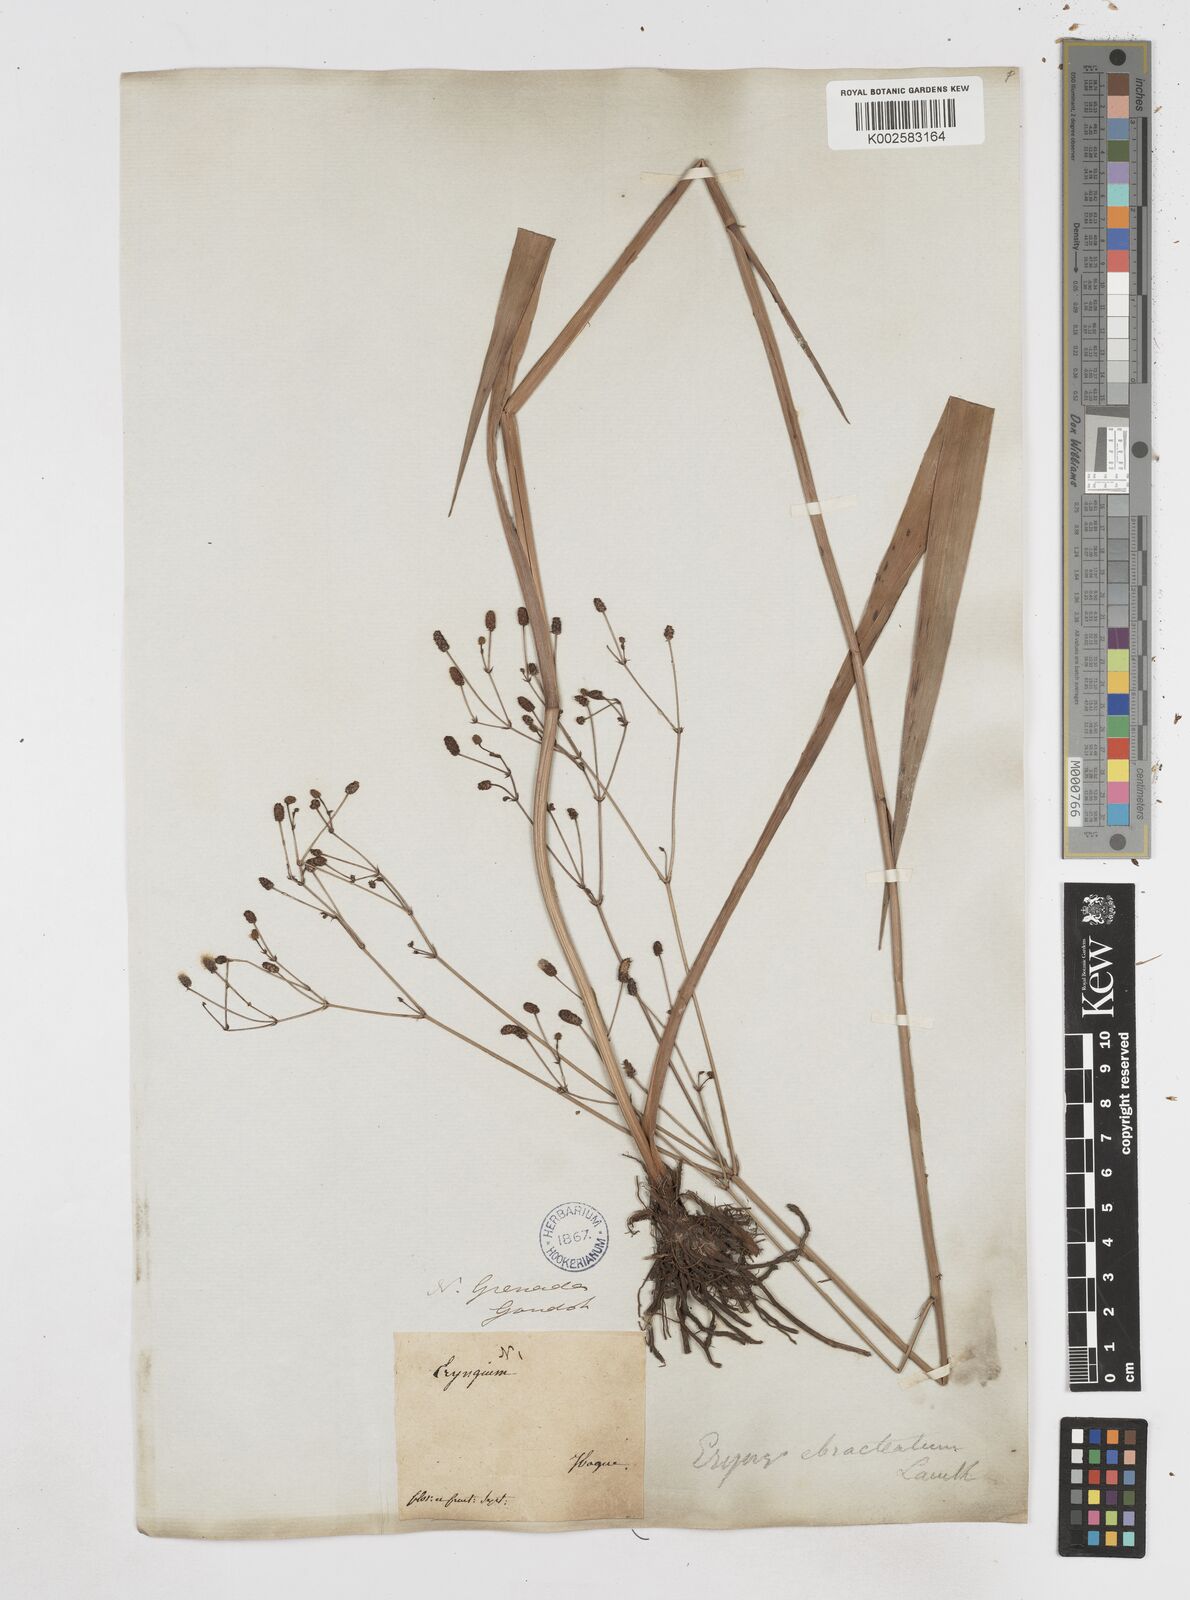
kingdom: Plantae
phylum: Tracheophyta
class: Magnoliopsida
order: Apiales
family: Apiaceae
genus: Eryngium
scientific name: Eryngium ebracteatum
